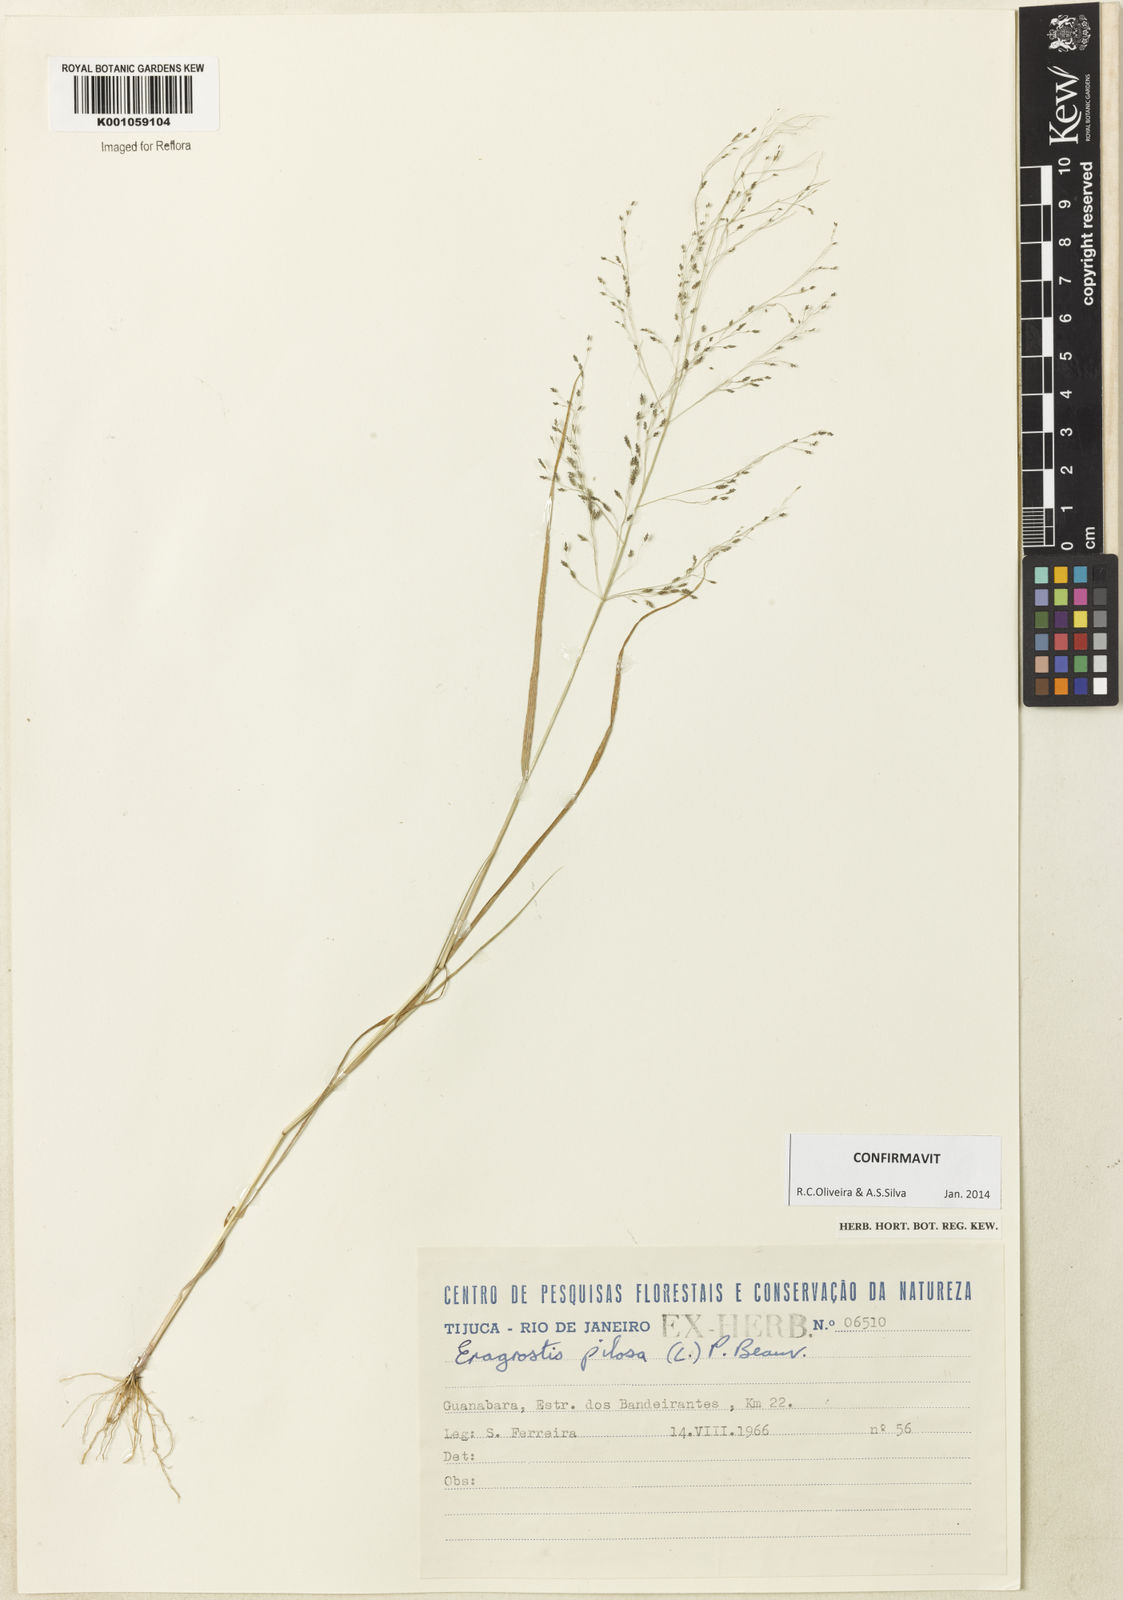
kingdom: Plantae
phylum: Tracheophyta
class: Liliopsida
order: Poales
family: Poaceae
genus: Eragrostis
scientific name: Eragrostis pilosa
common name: Indian lovegrass
